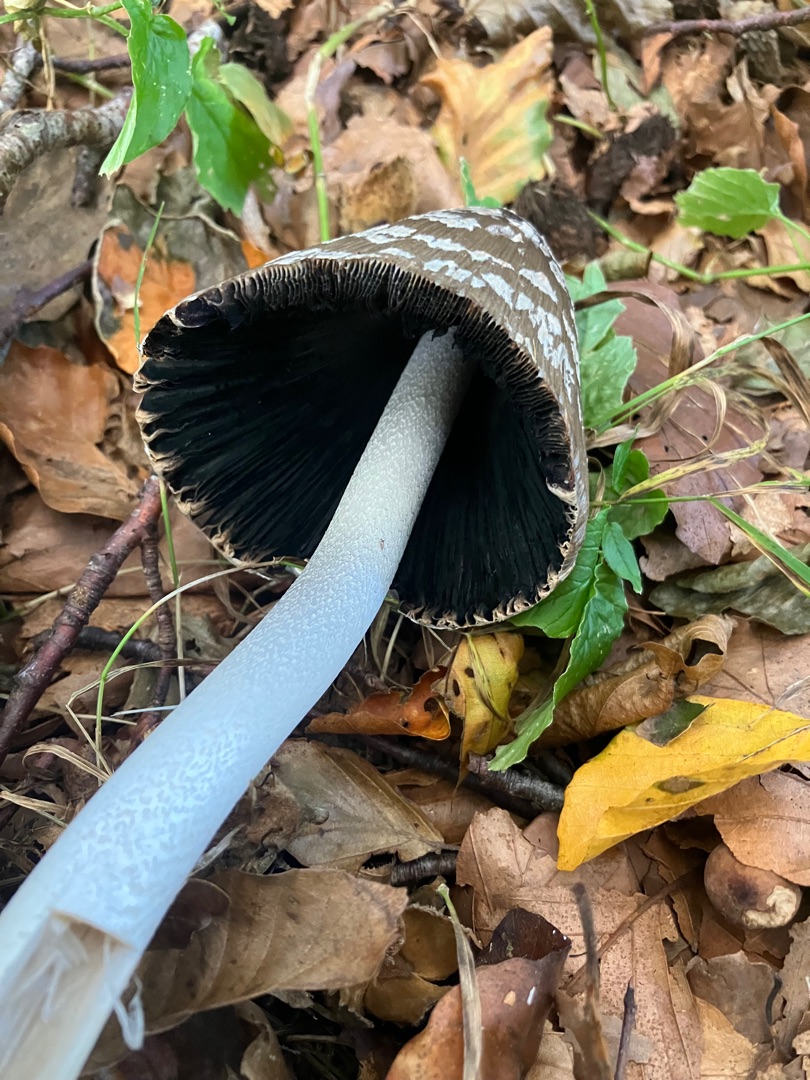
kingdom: Fungi
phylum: Basidiomycota
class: Agaricomycetes
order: Agaricales
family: Psathyrellaceae
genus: Coprinopsis
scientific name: Coprinopsis picacea
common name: Skade-blækhat
